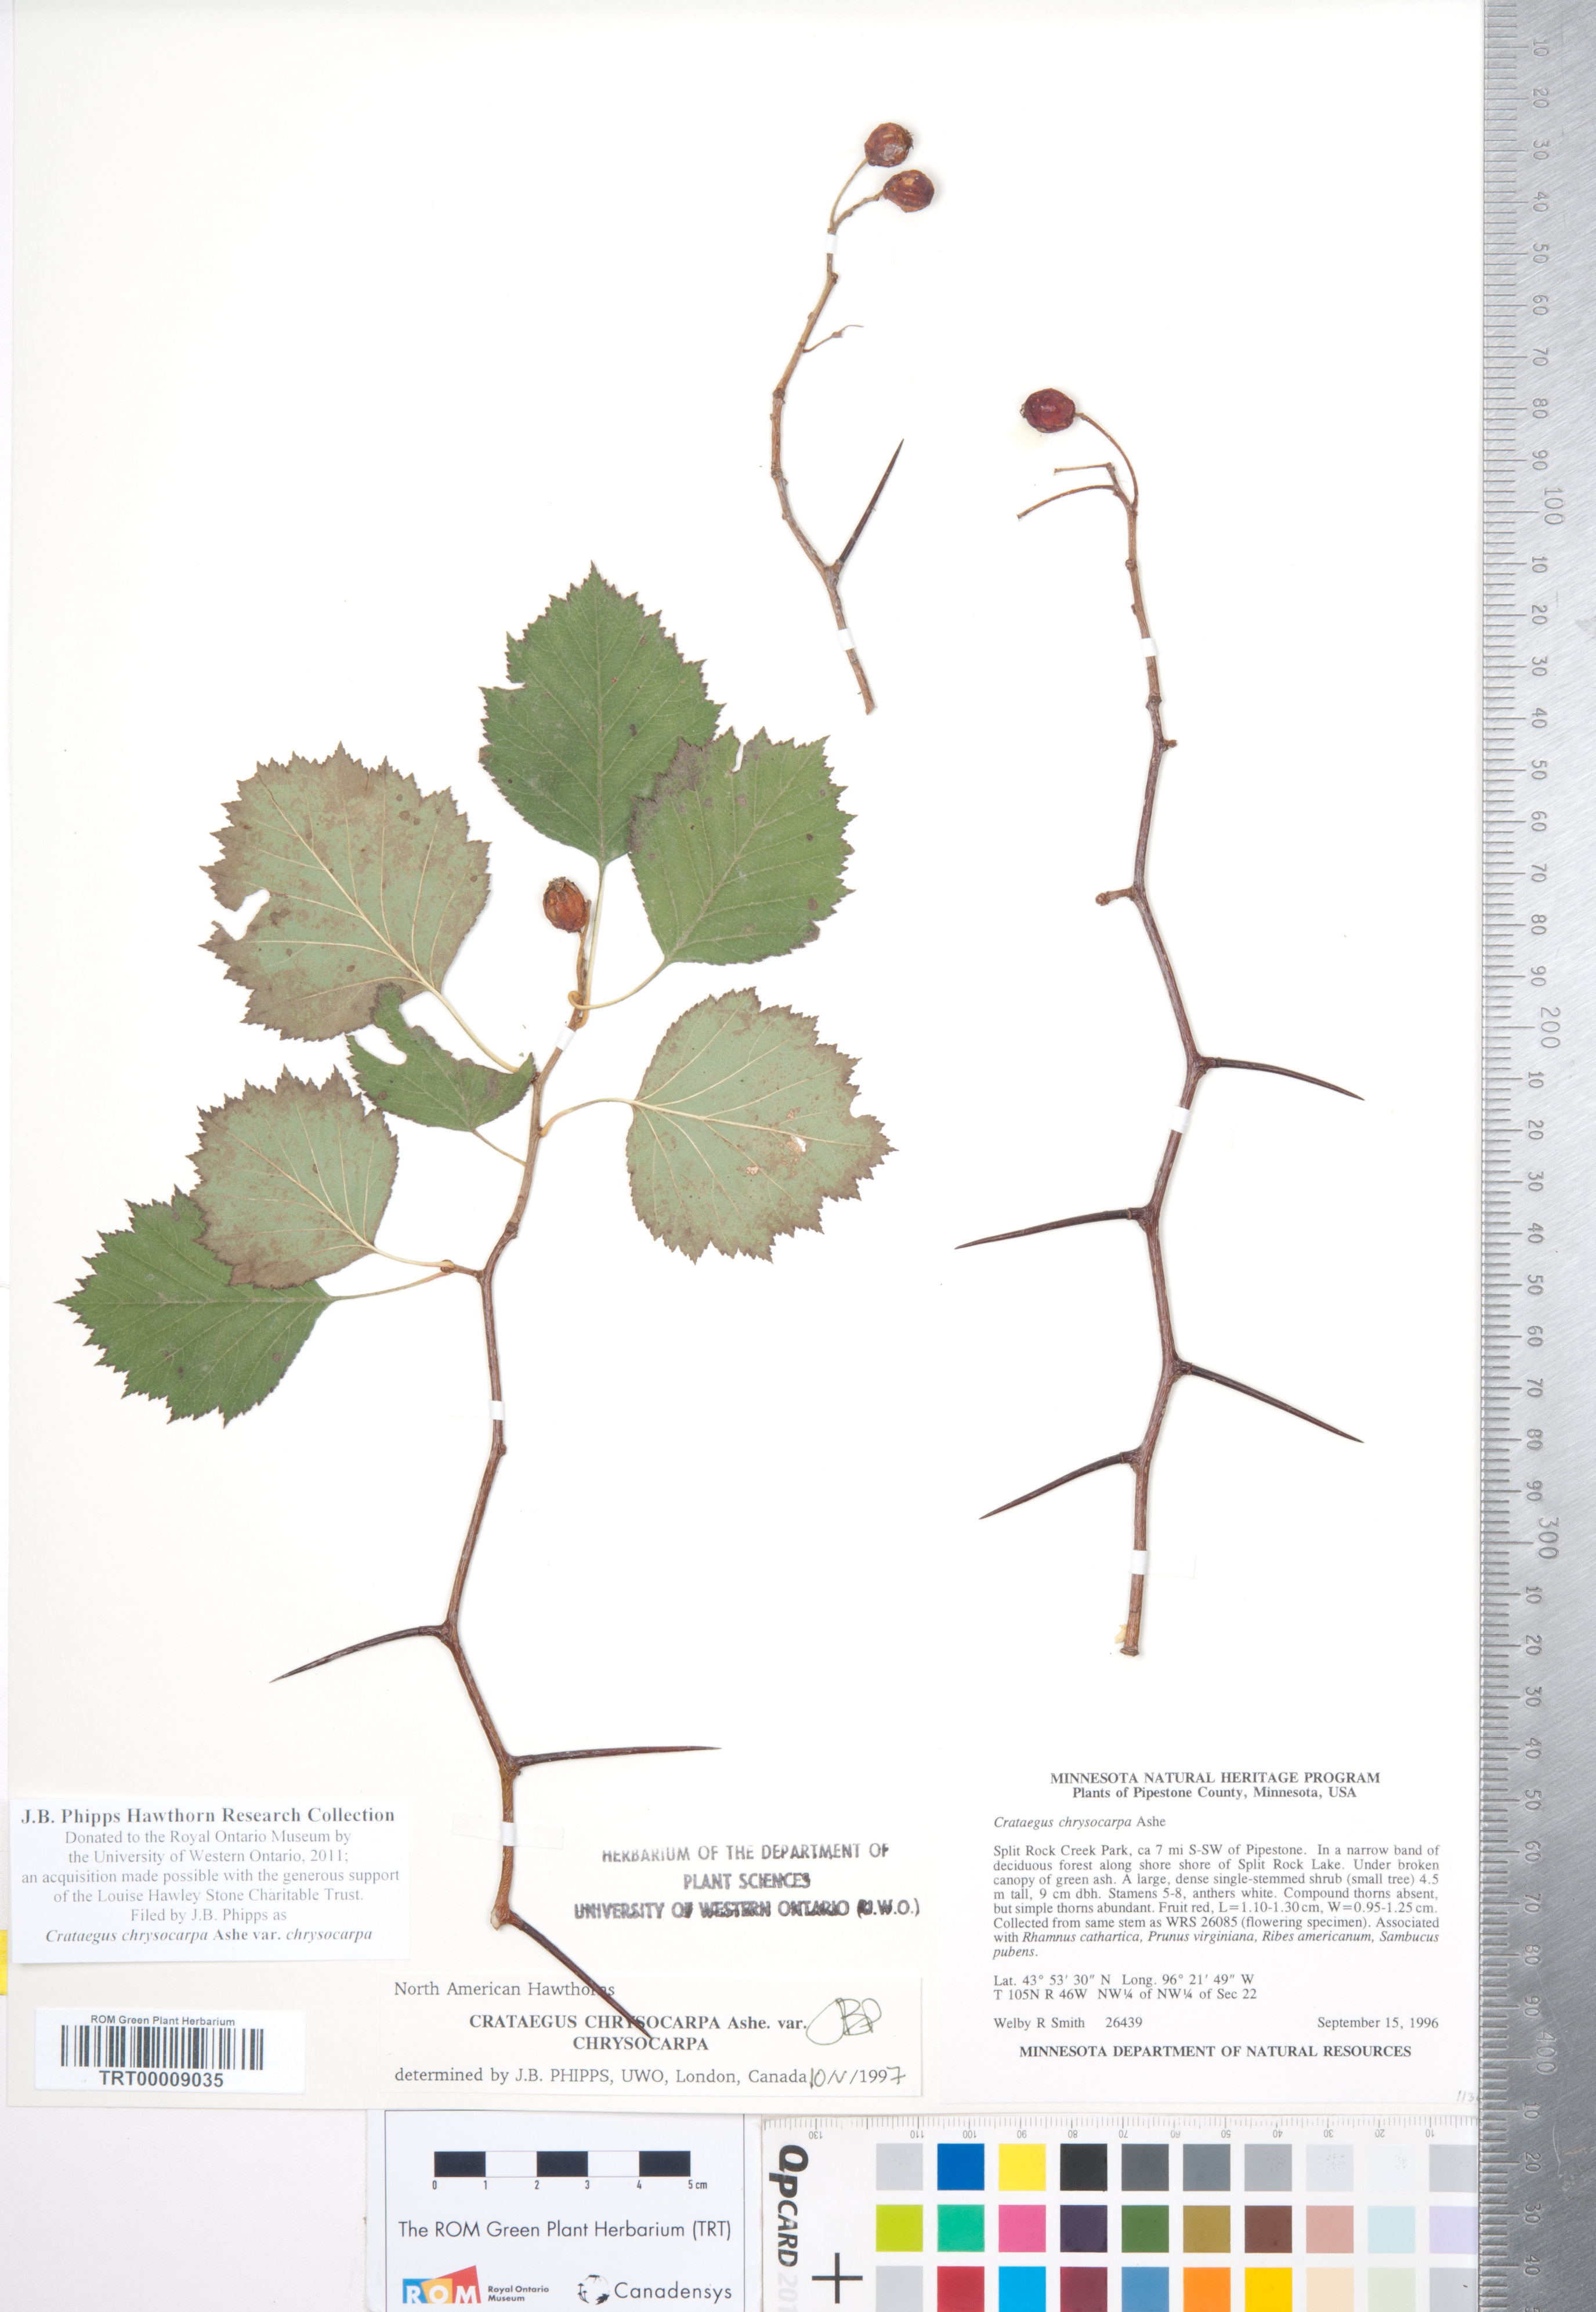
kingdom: Plantae
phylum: Tracheophyta
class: Magnoliopsida
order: Rosales
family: Rosaceae
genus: Crataegus
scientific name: Crataegus chrysocarpa
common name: Fire-berry hawthorn
